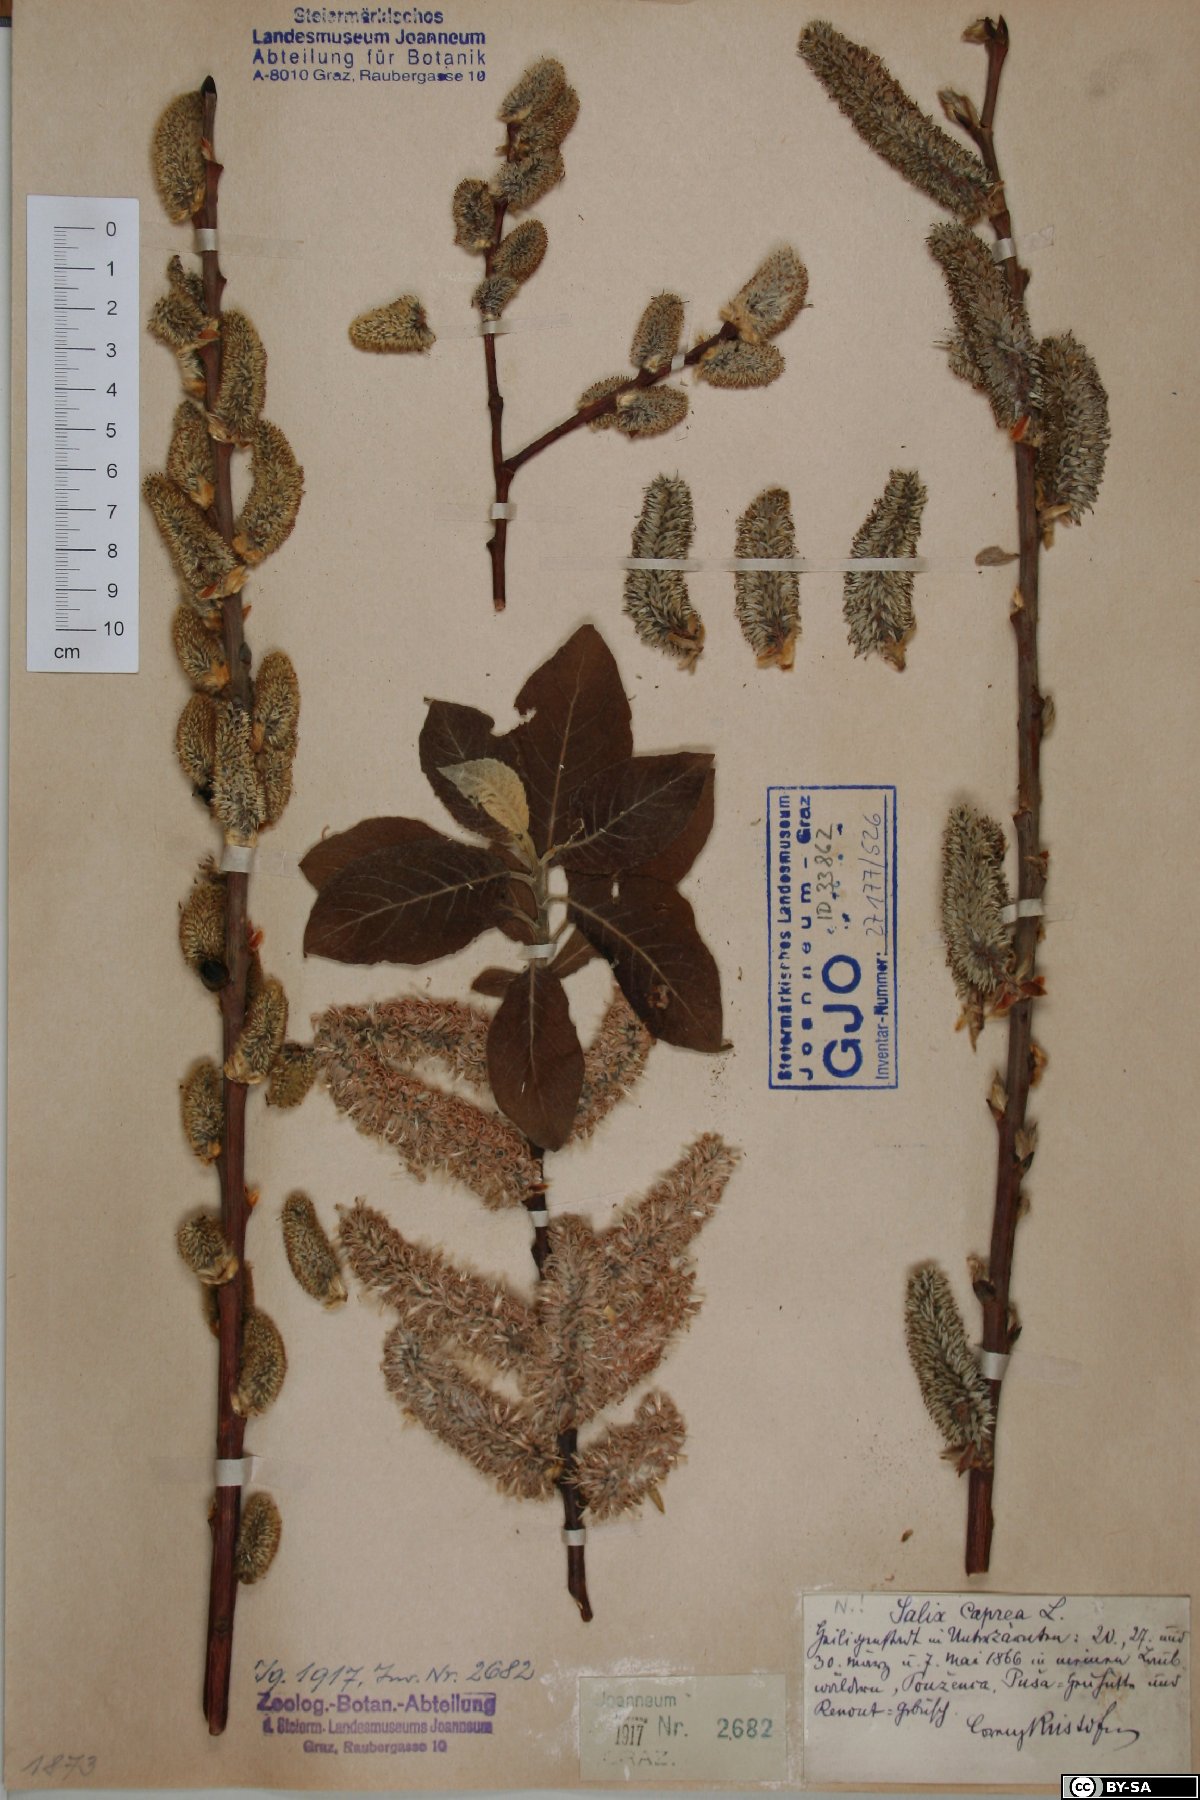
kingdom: Plantae
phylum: Tracheophyta
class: Magnoliopsida
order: Malpighiales
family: Salicaceae
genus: Salix
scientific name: Salix caprea
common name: Goat willow
